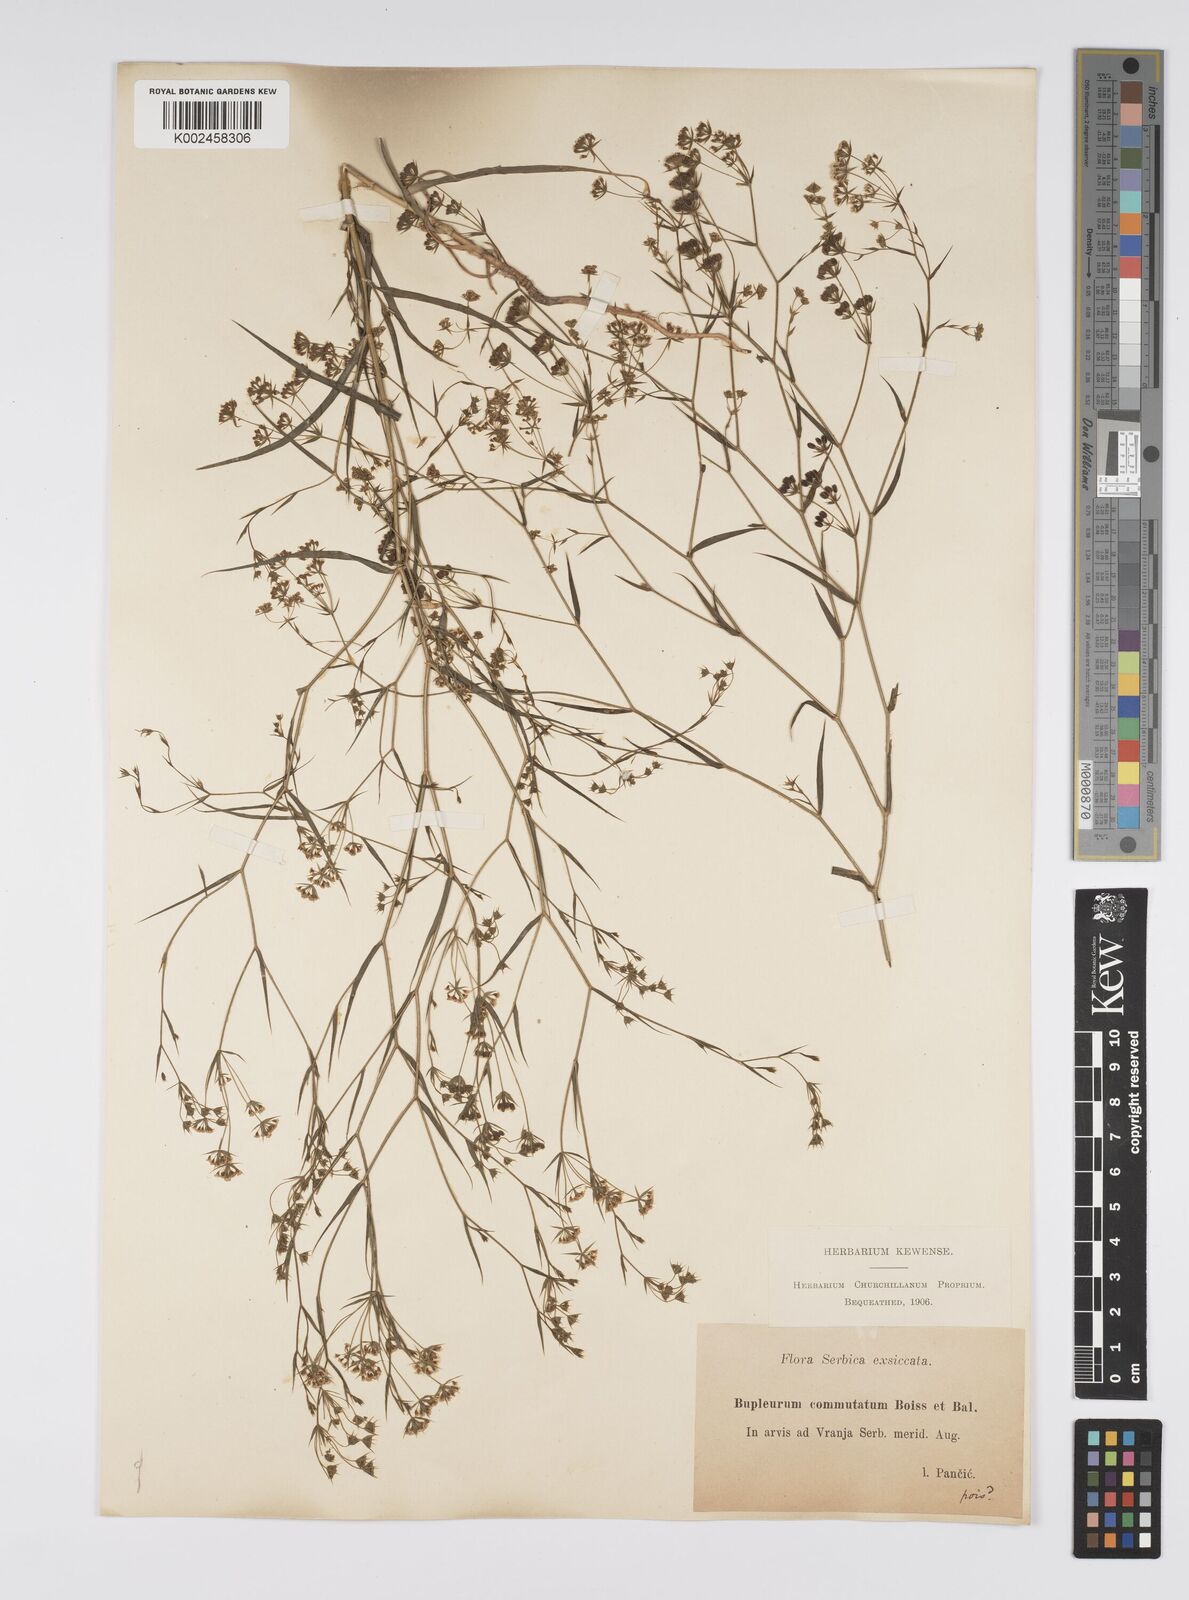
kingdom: Plantae
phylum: Tracheophyta
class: Magnoliopsida
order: Apiales
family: Apiaceae
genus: Bupleurum
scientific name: Bupleurum commutatum
